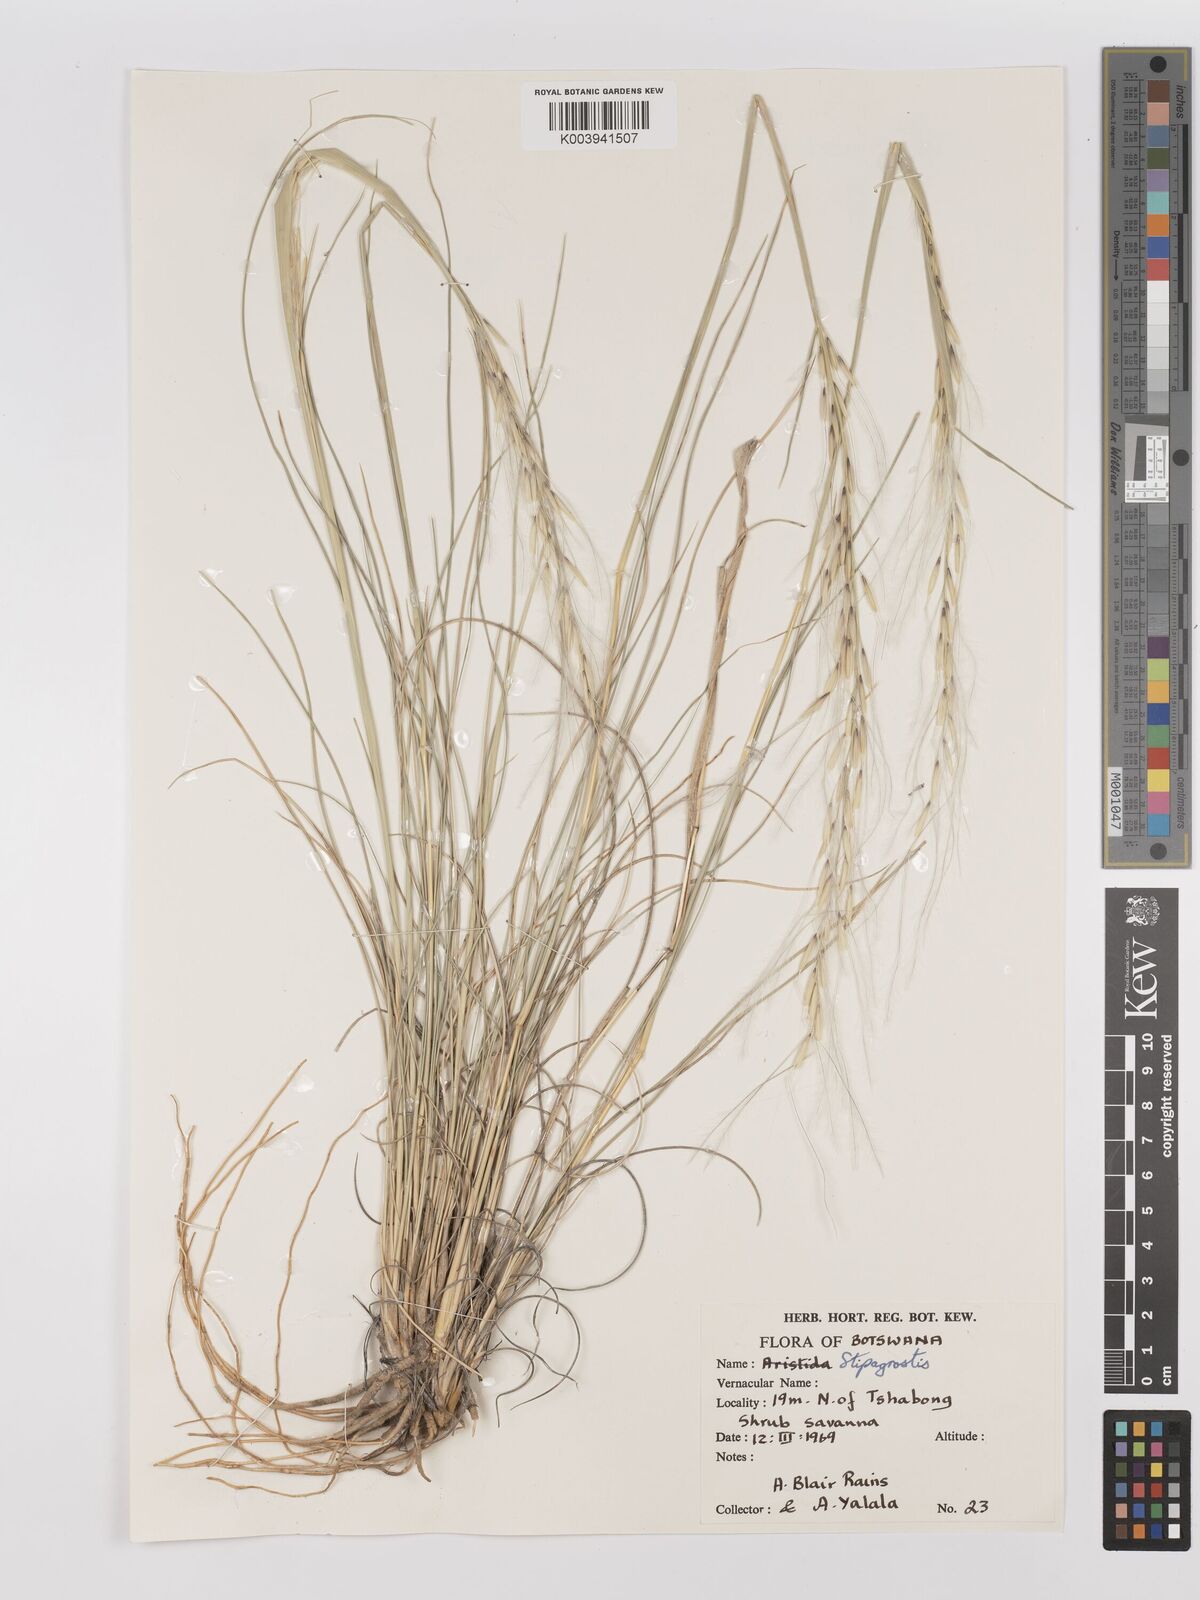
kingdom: Plantae
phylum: Tracheophyta
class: Liliopsida
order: Poales
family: Poaceae
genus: Stipagrostis
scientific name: Stipagrostis
